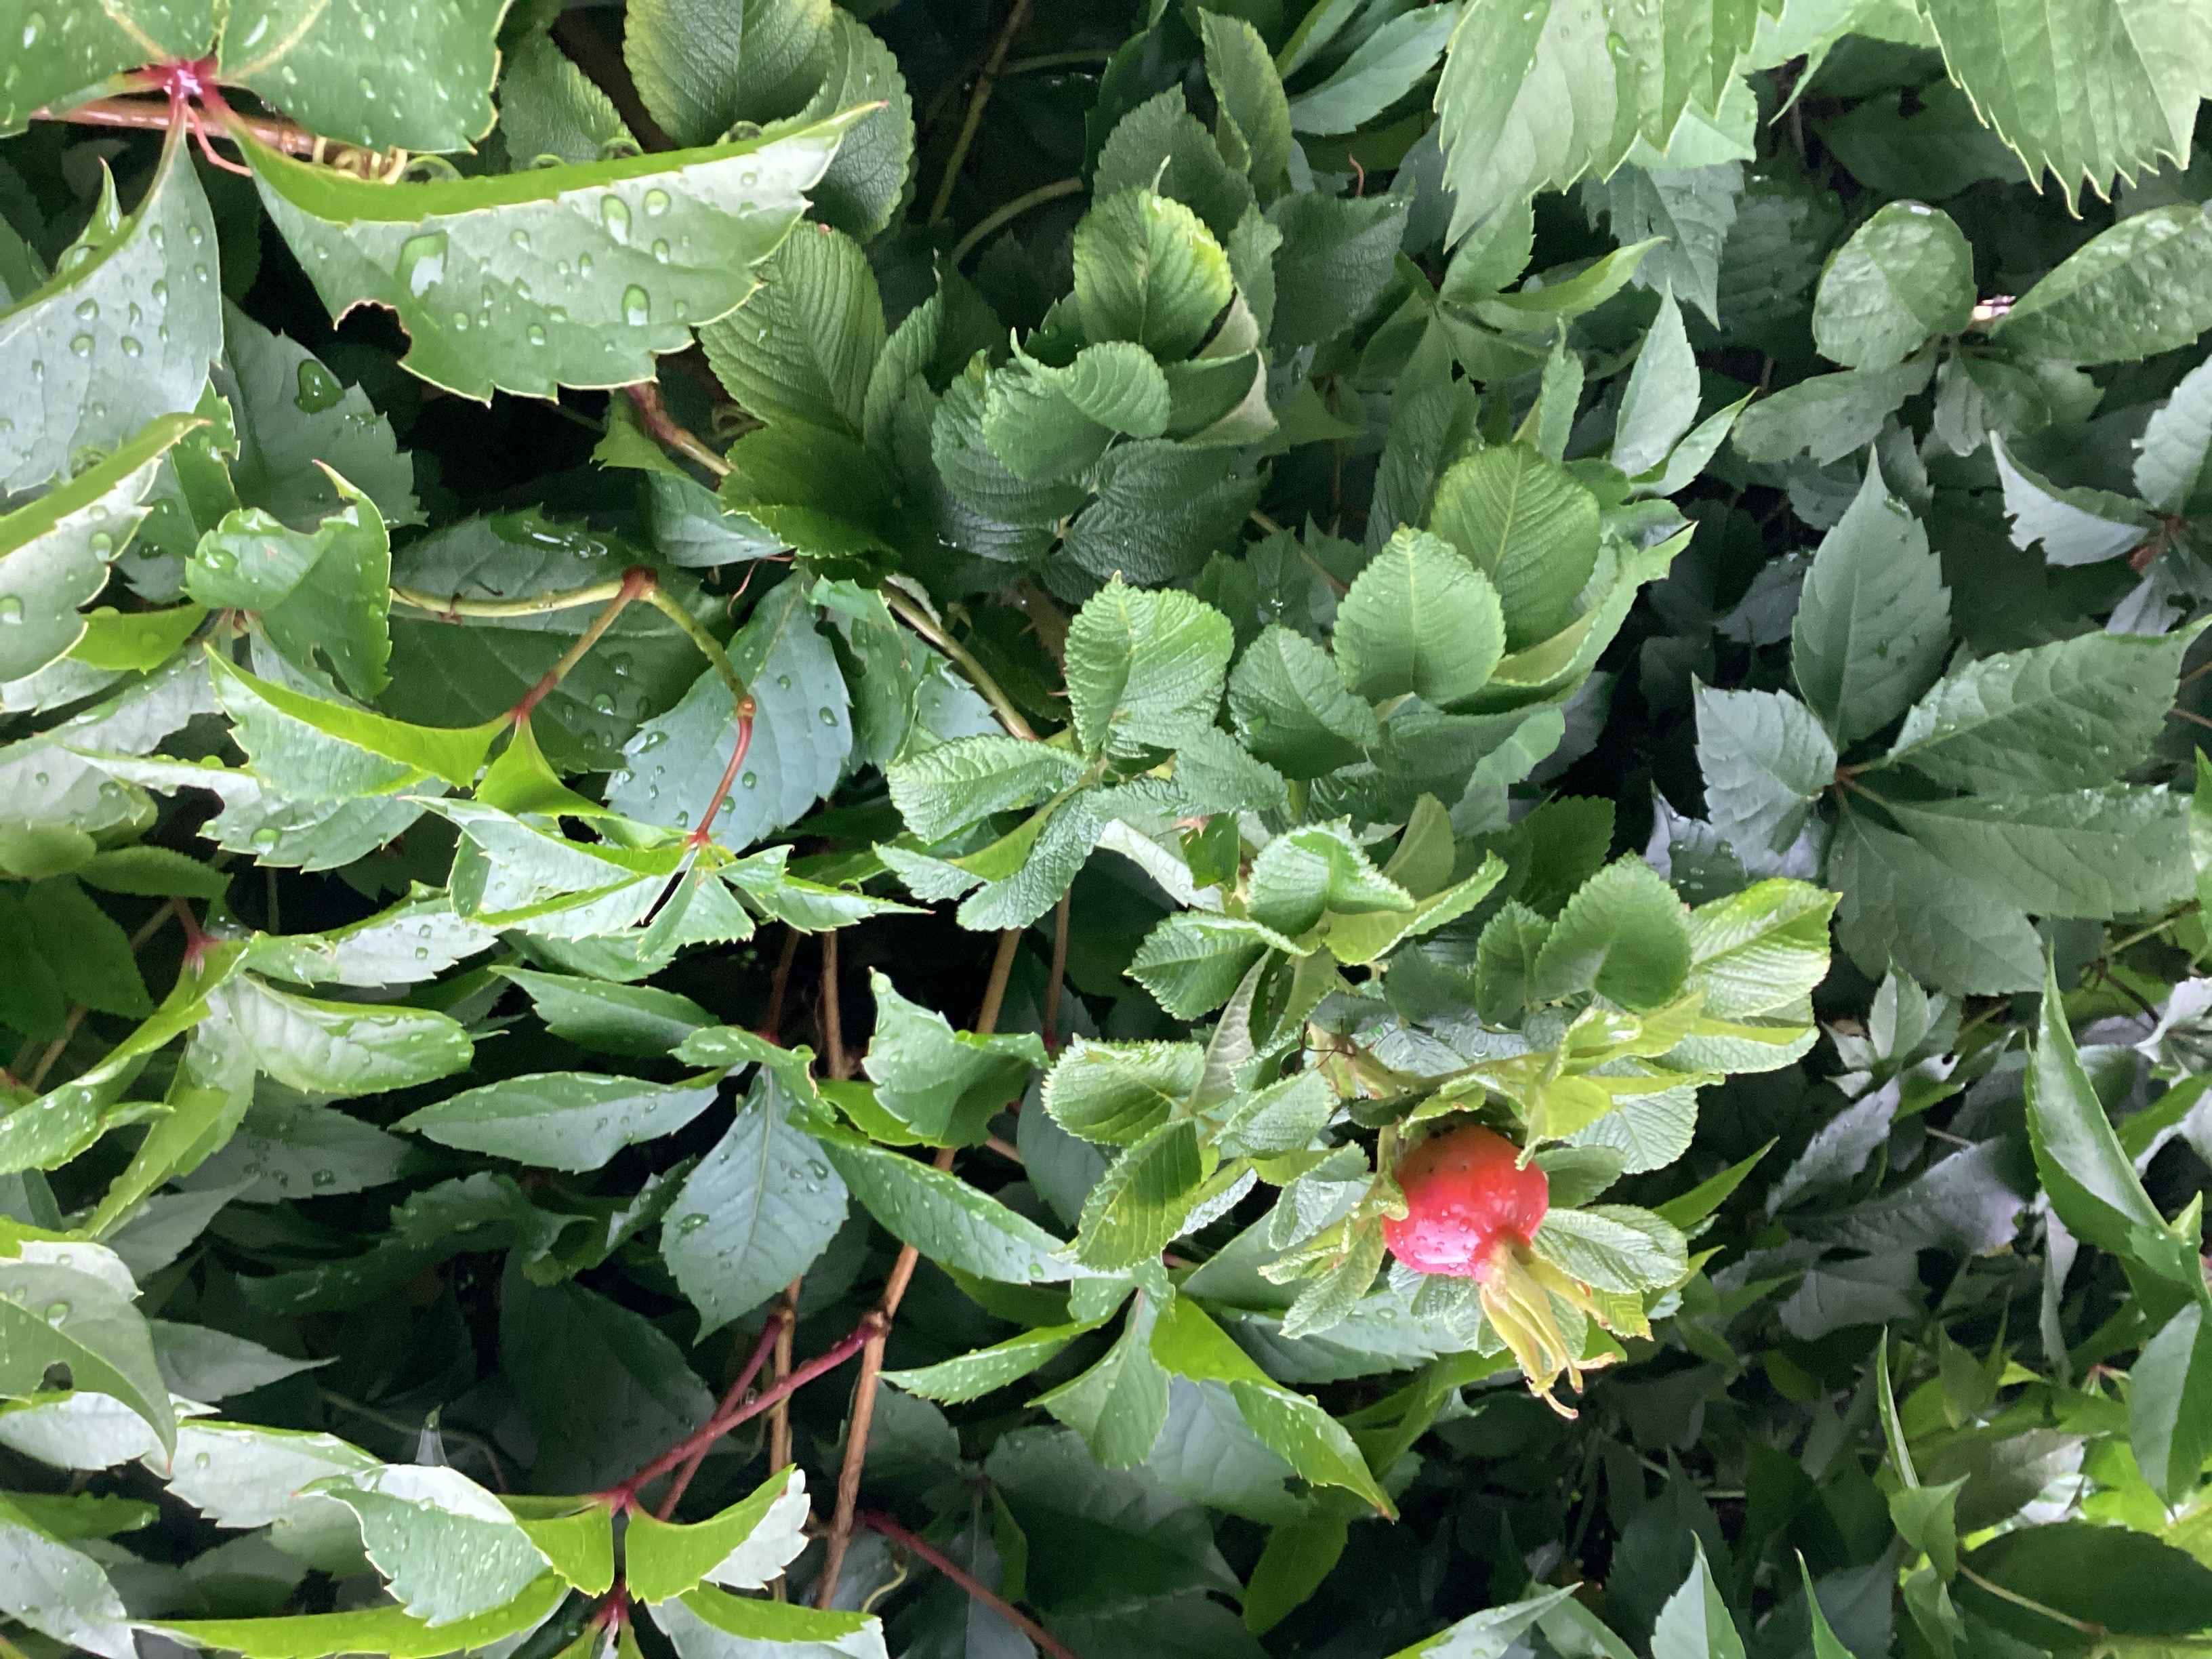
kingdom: Plantae
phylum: Tracheophyta
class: Magnoliopsida
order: Rosales
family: Rosaceae
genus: Rosa
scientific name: Rosa rugosa
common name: rynkerose
